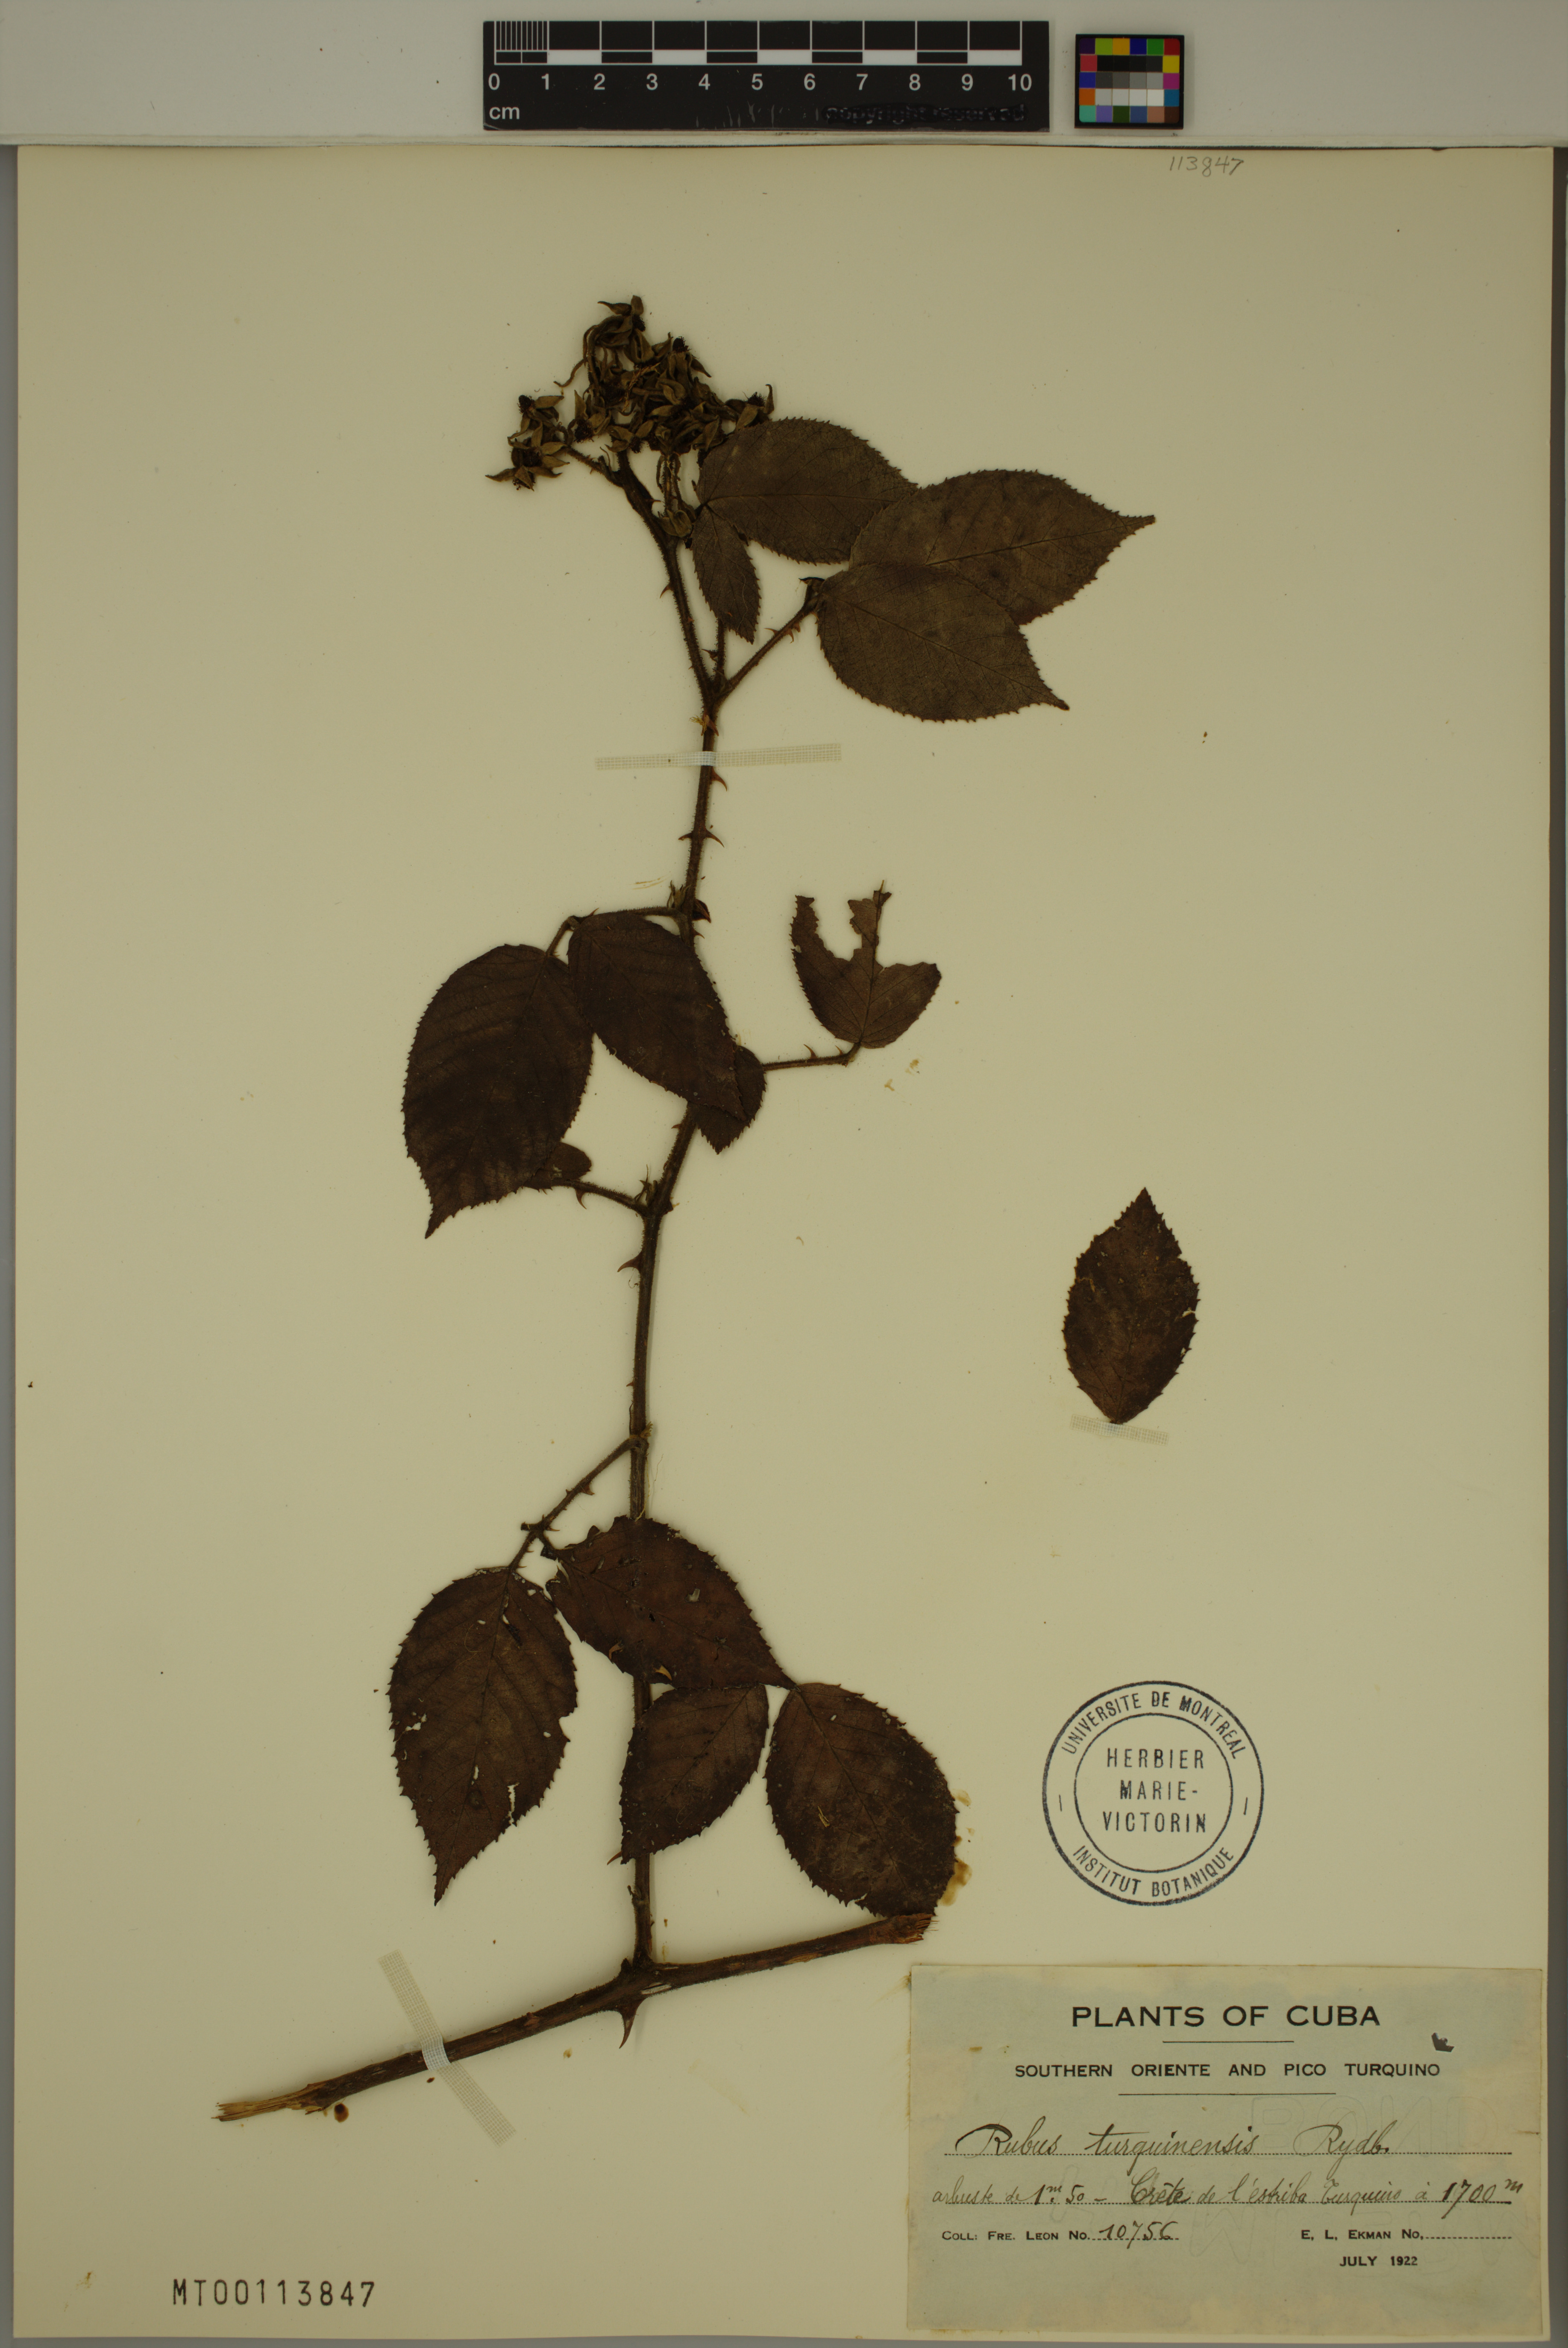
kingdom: Plantae
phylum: Tracheophyta
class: Magnoliopsida
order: Rosales
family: Rosaceae
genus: Rubus
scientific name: Rubus turquinensis
